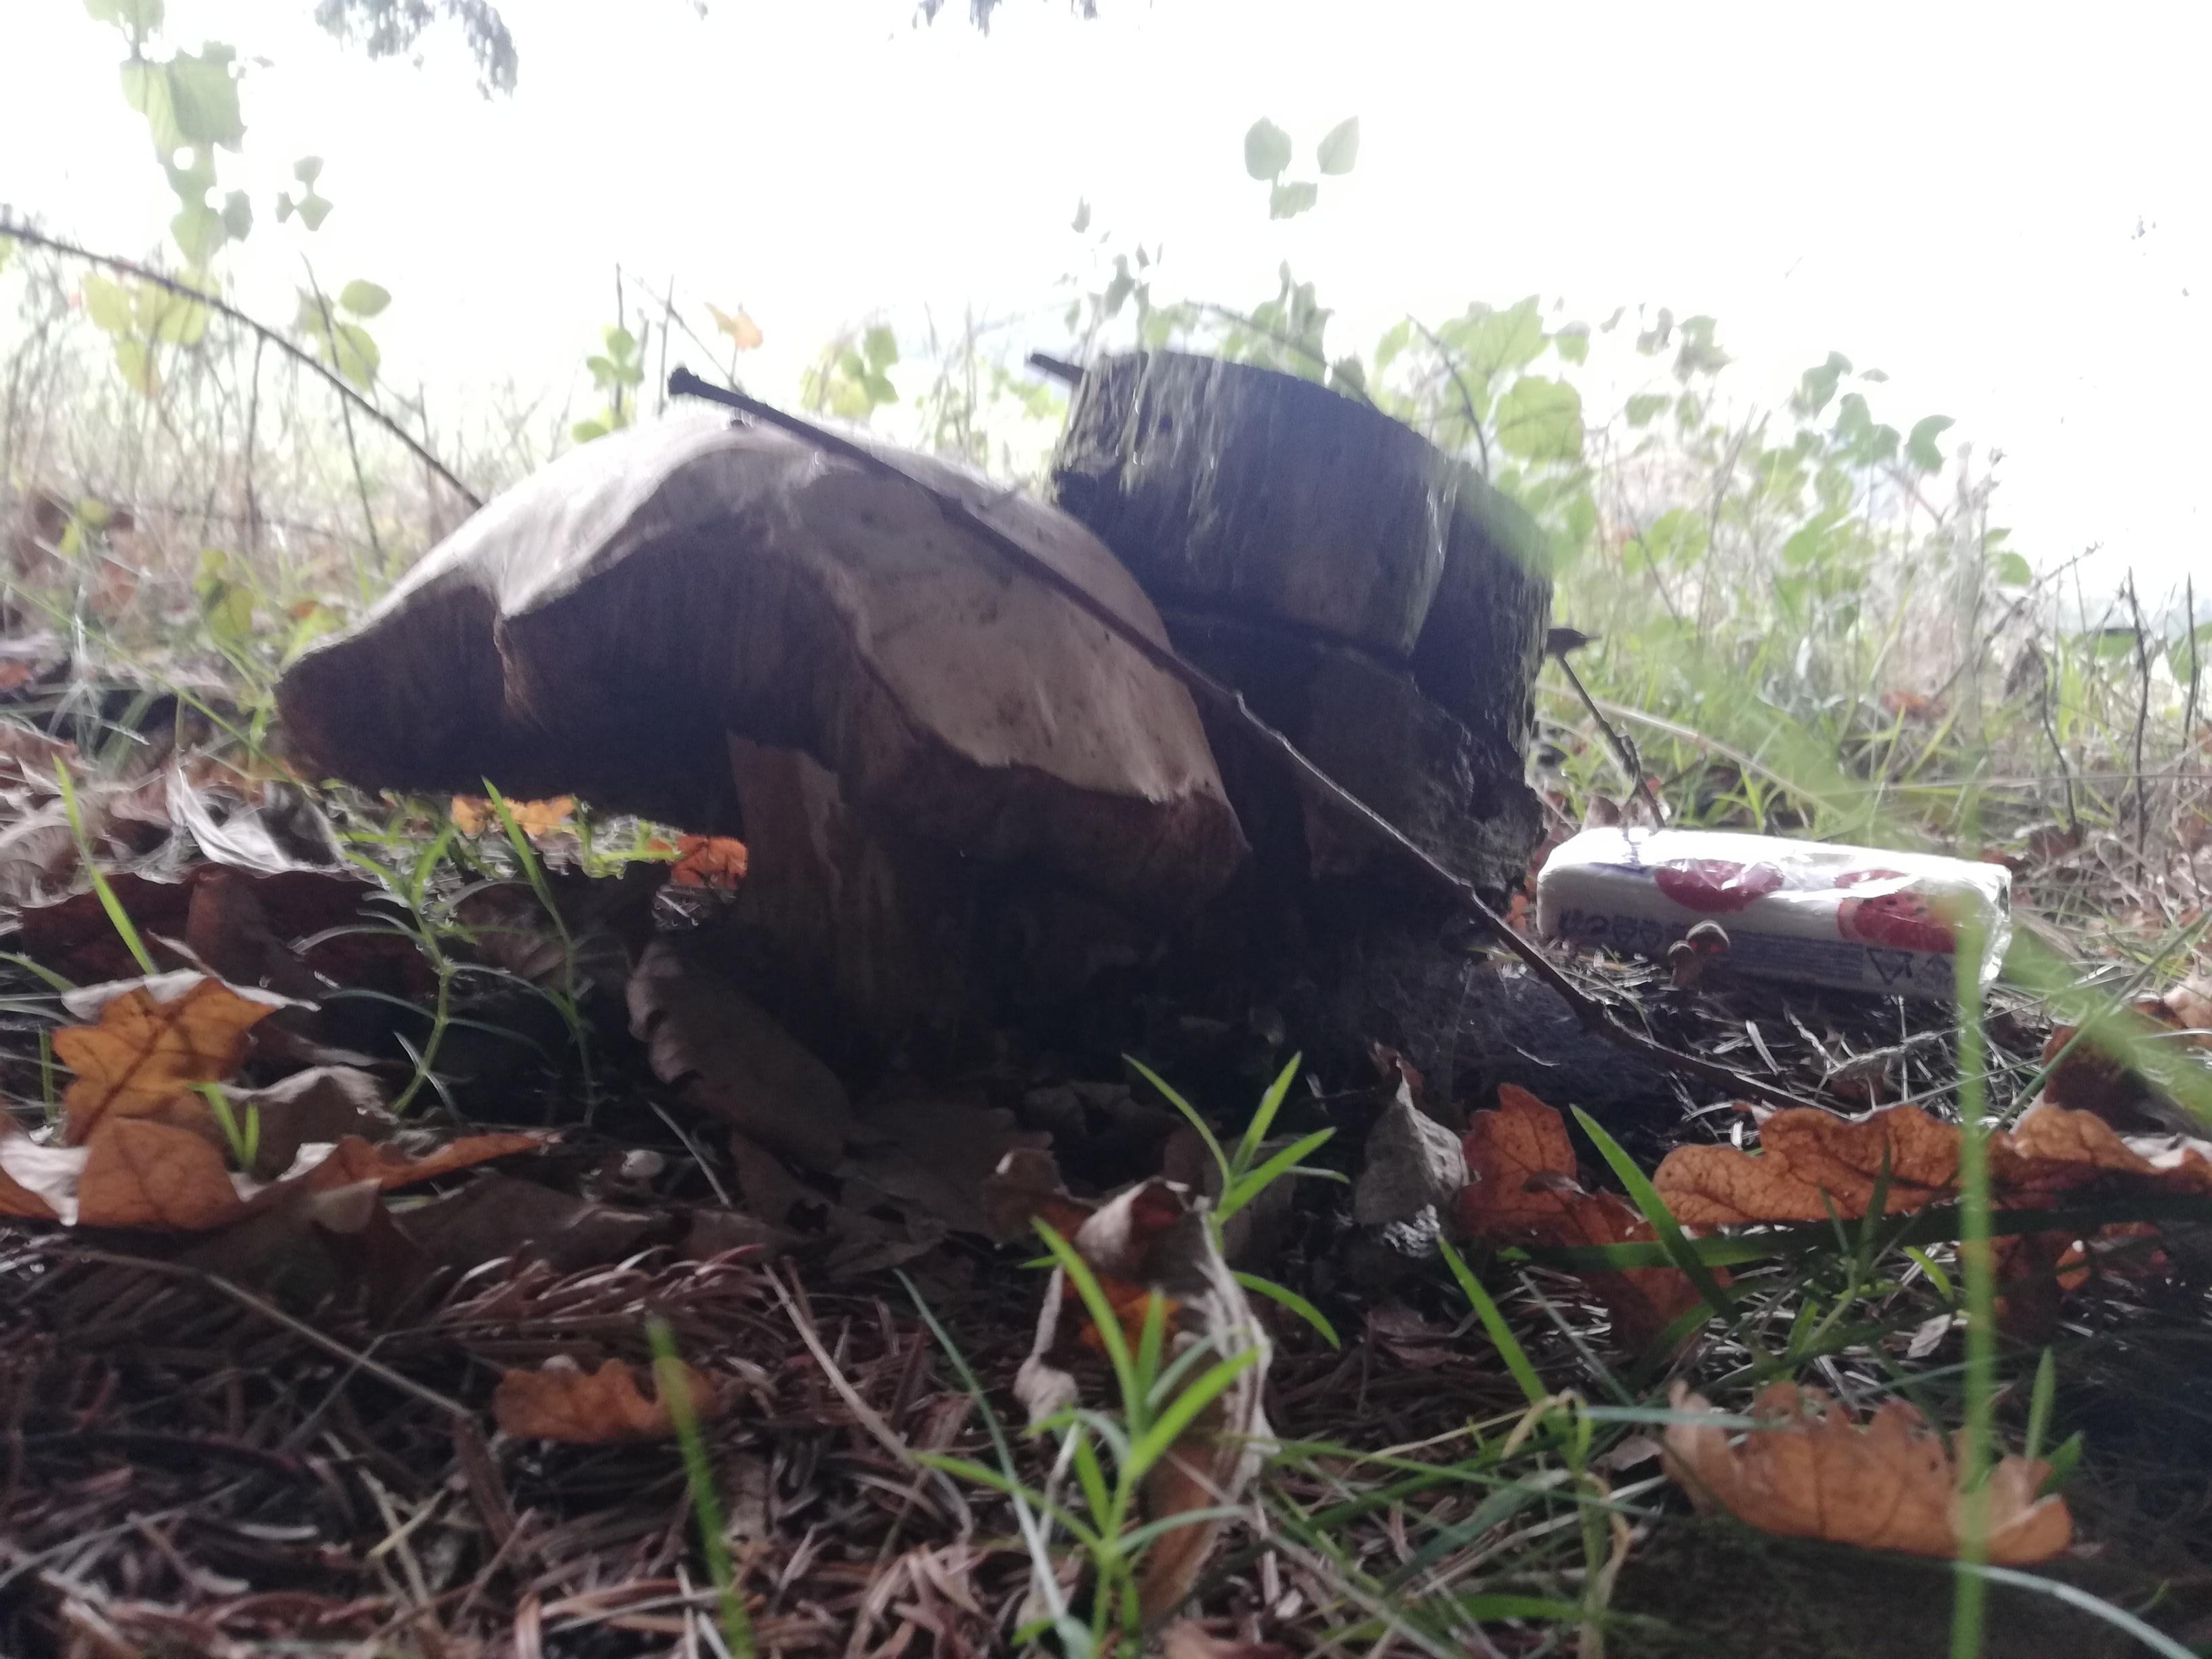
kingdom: Fungi
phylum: Basidiomycota
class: Agaricomycetes
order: Boletales
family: Boletaceae
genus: Boletus
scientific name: Boletus edulis
